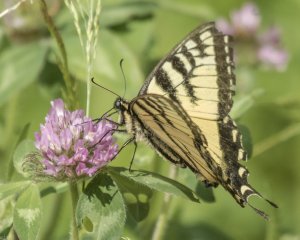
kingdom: Animalia
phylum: Arthropoda
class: Insecta
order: Lepidoptera
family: Papilionidae
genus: Pterourus
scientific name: Pterourus canadensis
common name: Canadian Tiger Swallowtail
